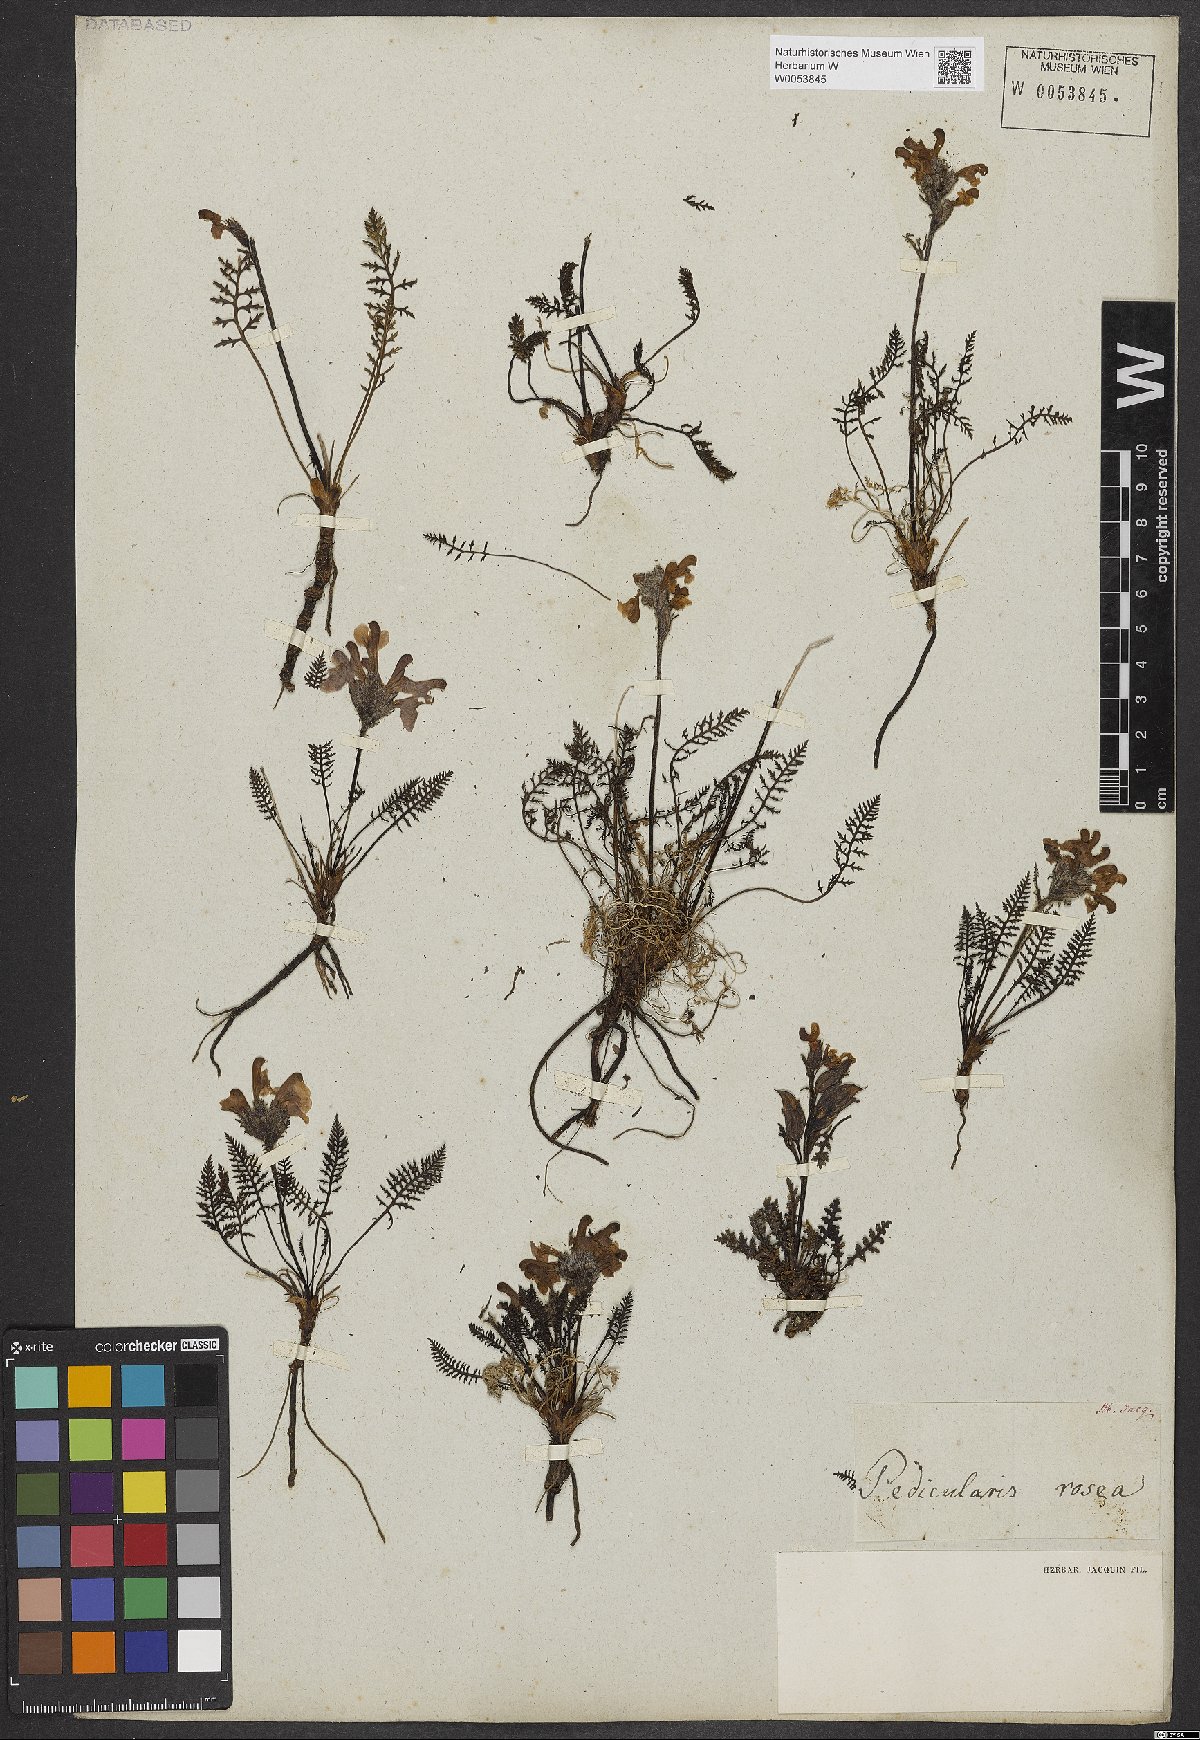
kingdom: Plantae
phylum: Tracheophyta
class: Magnoliopsida
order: Lamiales
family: Orobanchaceae
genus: Pedicularis
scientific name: Pedicularis rosea
